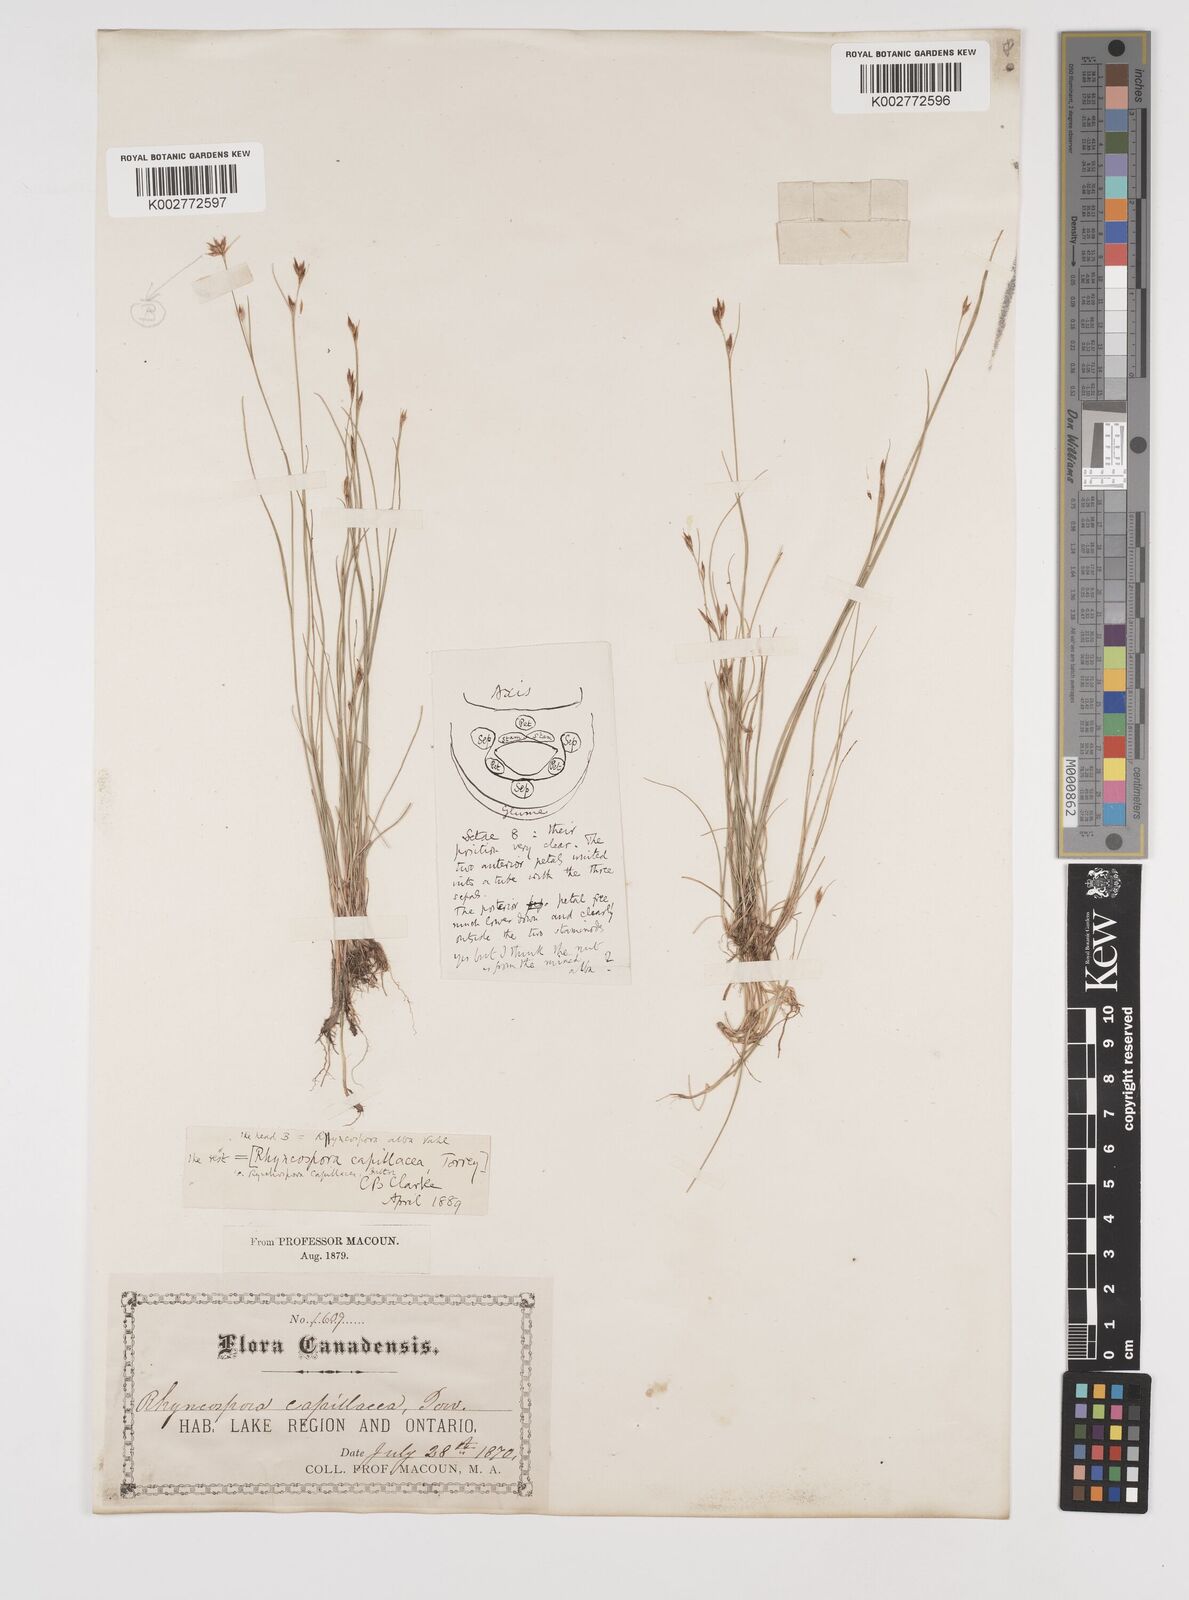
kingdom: Plantae
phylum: Tracheophyta
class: Liliopsida
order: Poales
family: Cyperaceae
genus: Rhynchospora
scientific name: Rhynchospora capillacea
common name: Capillary beakrush
